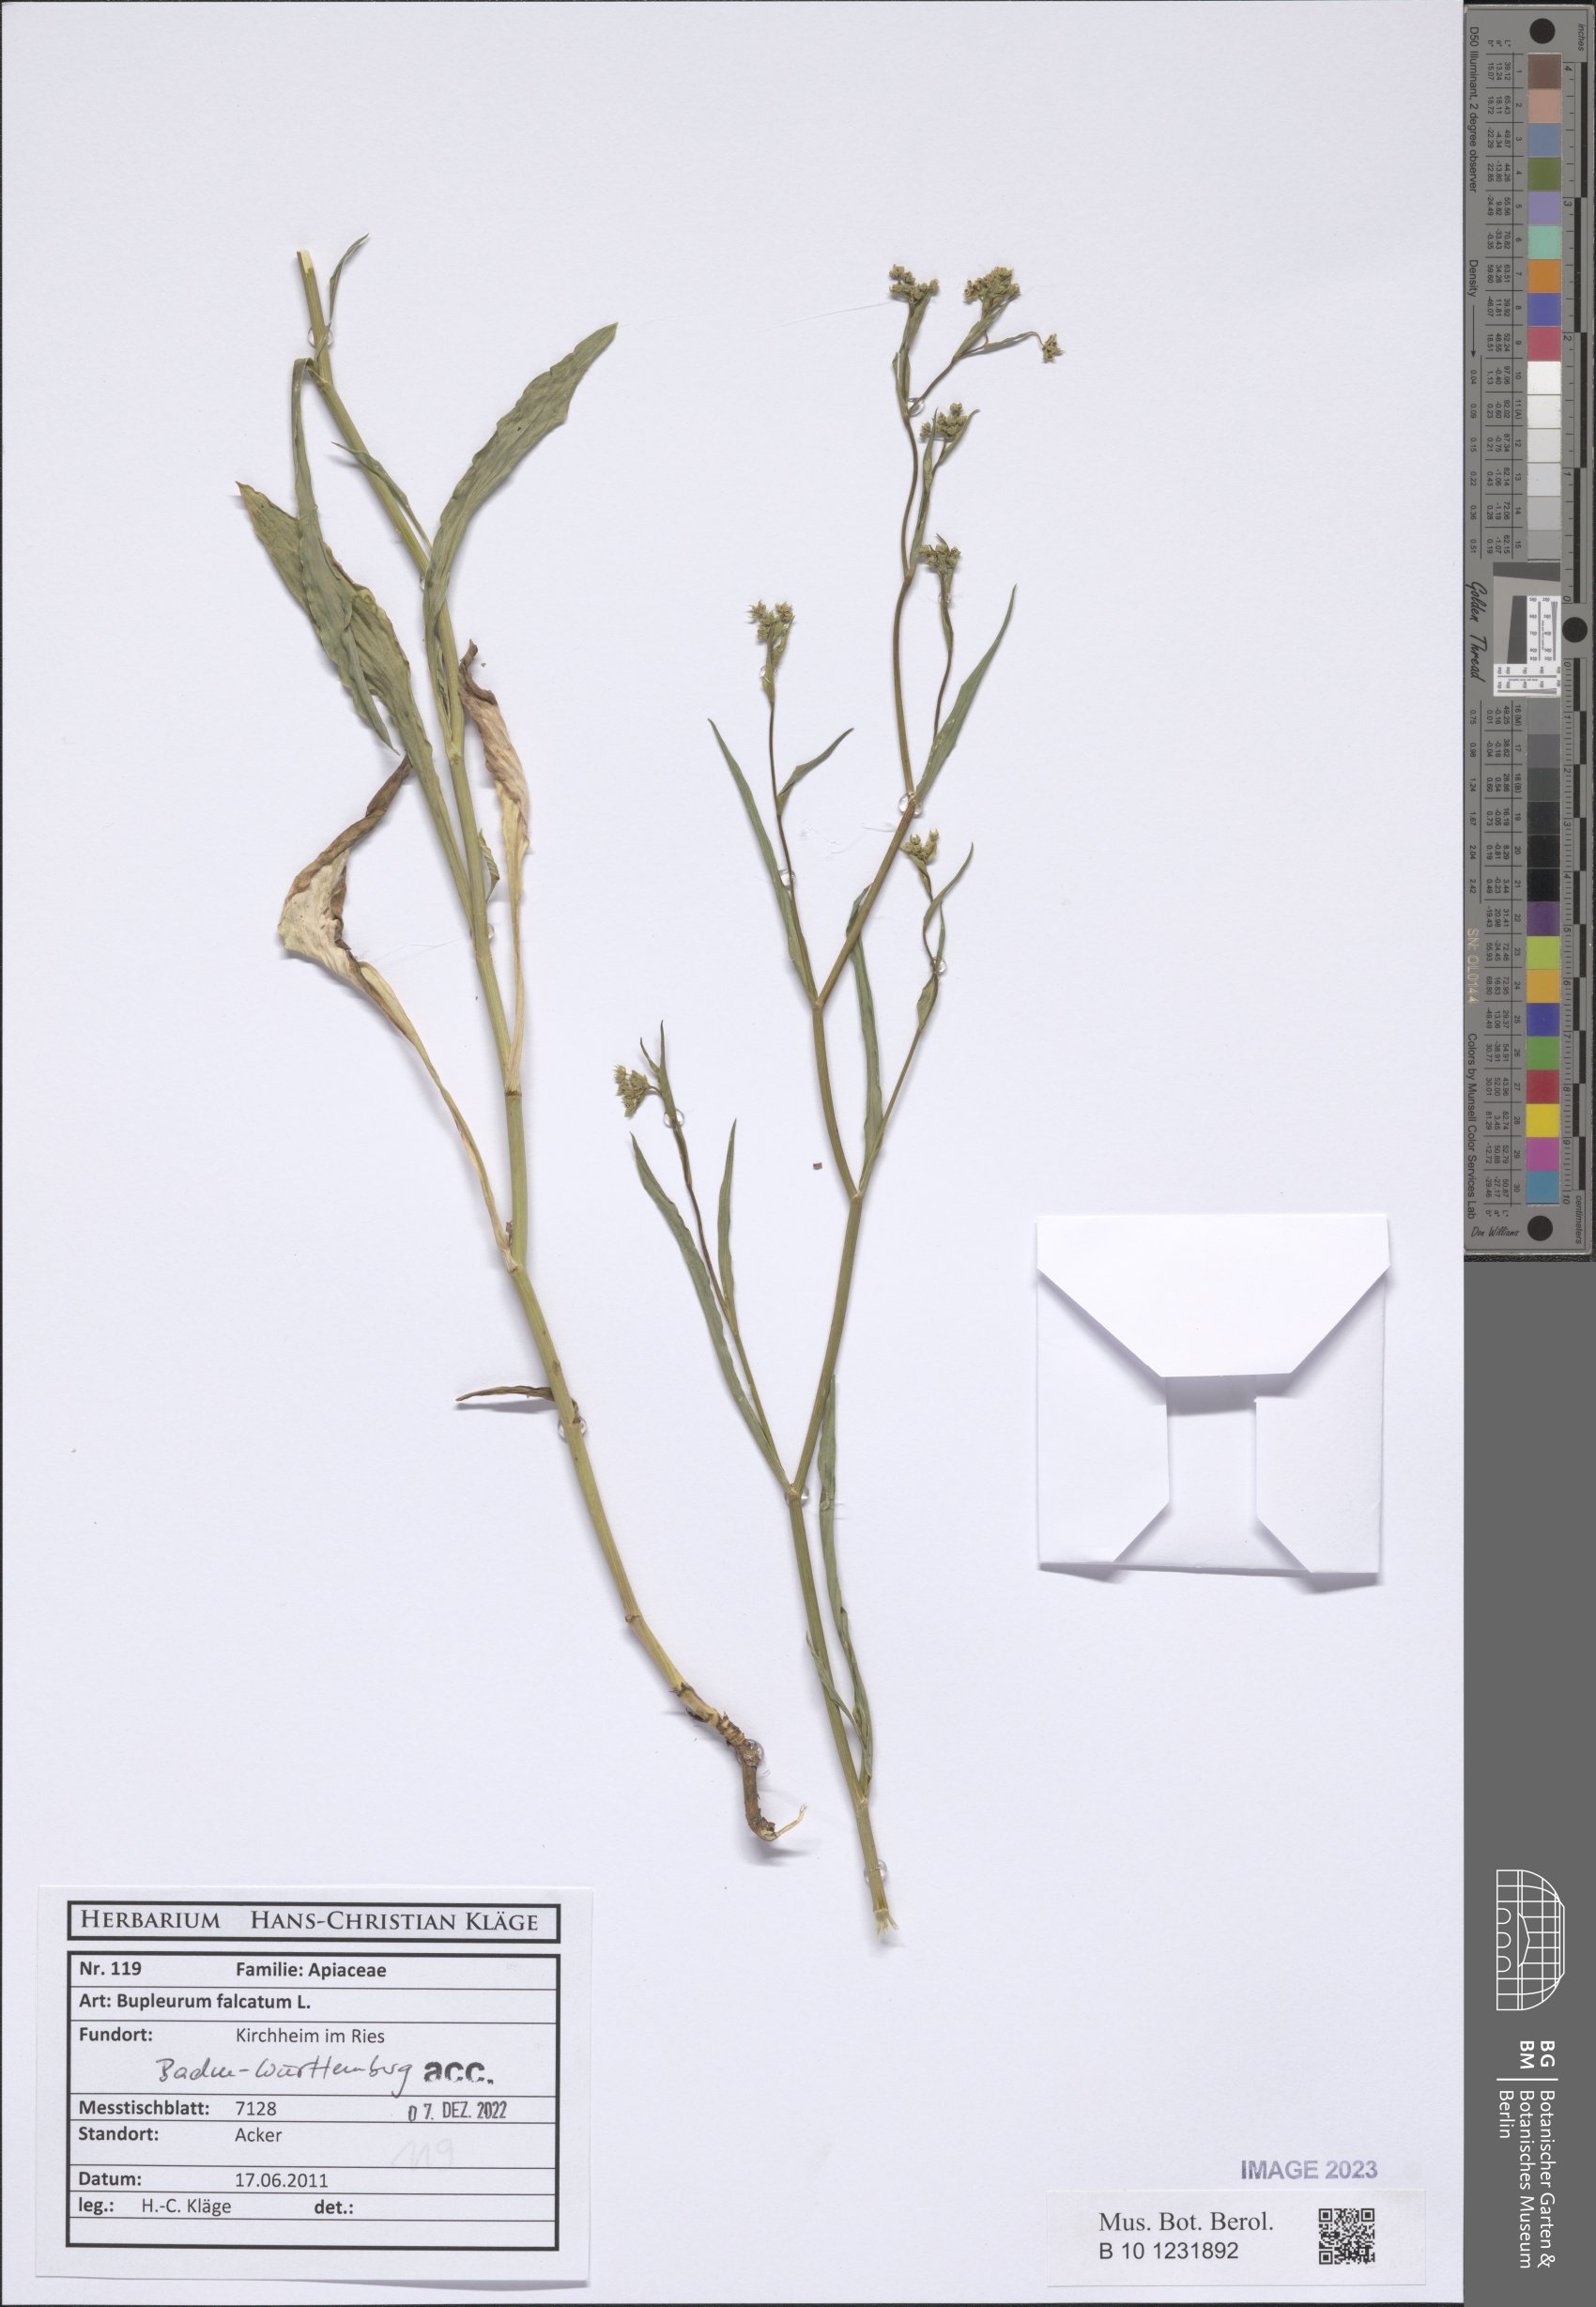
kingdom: Plantae
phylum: Tracheophyta
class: Magnoliopsida
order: Apiales
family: Apiaceae
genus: Bupleurum
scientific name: Bupleurum falcatum
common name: Sickle-leaved hare's-ear
